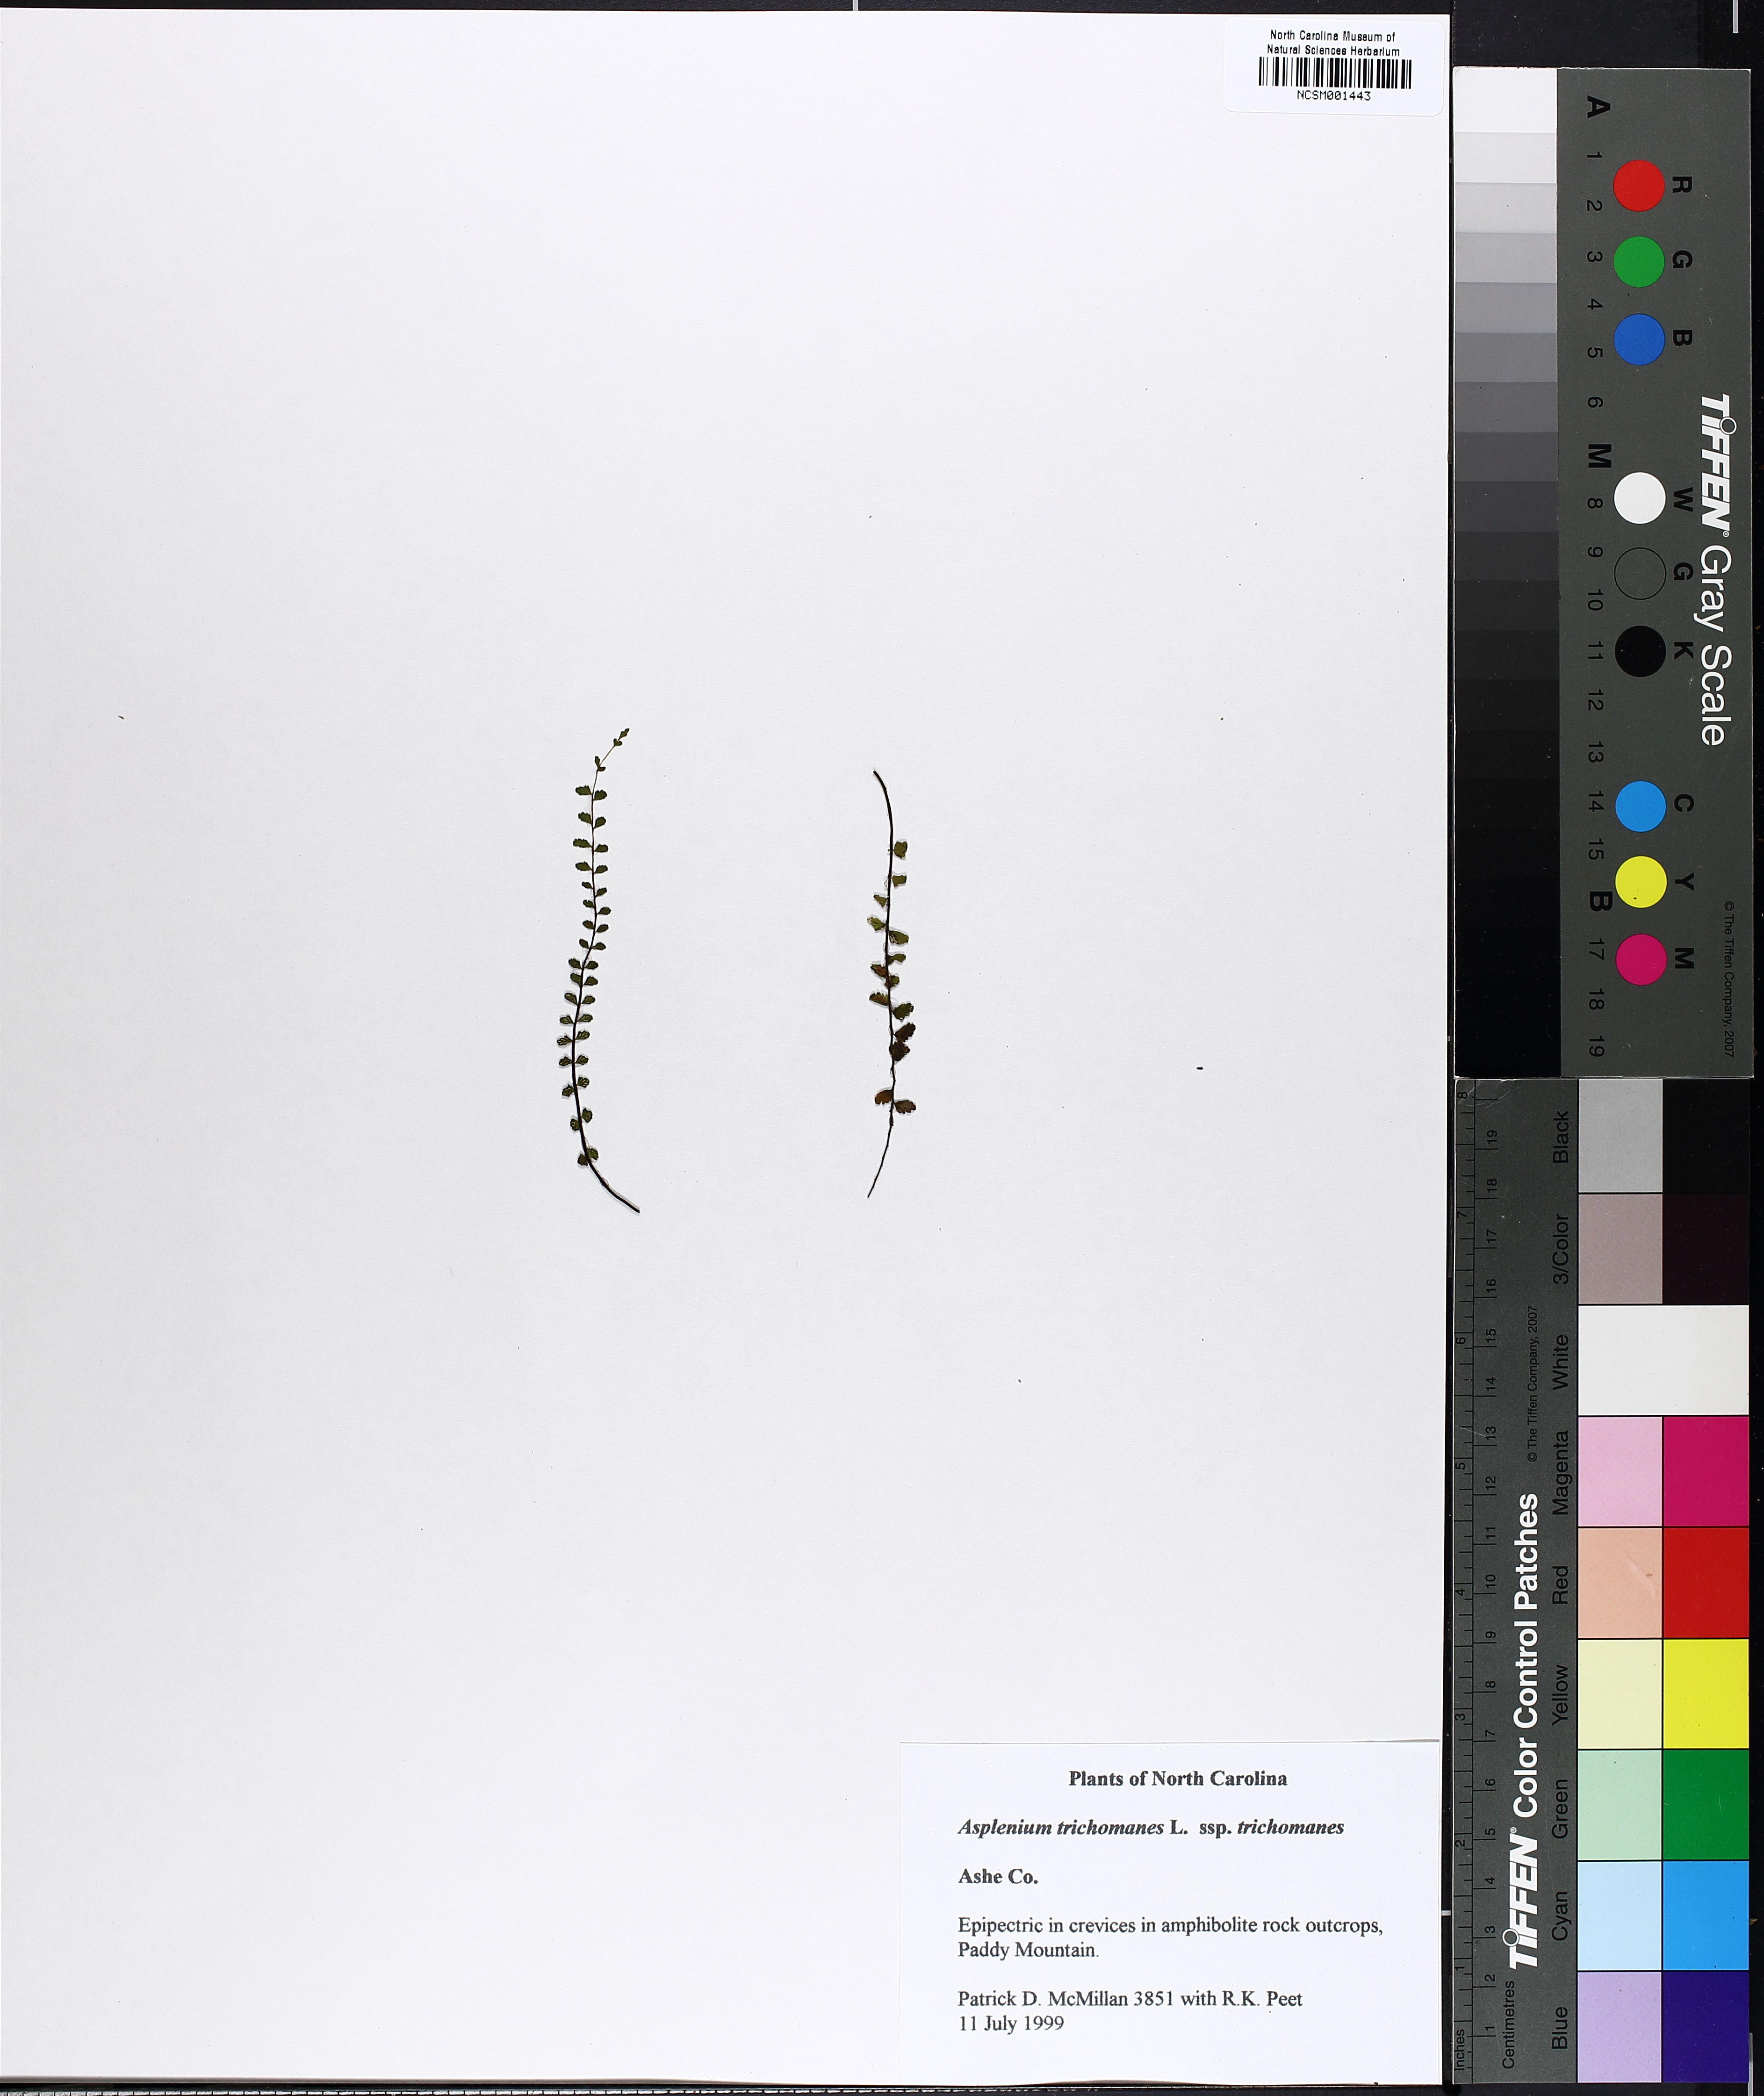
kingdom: Plantae
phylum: Tracheophyta
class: Polypodiopsida
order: Polypodiales
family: Aspleniaceae
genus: Asplenium
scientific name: Asplenium trichomanes
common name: Maidenhair spleenwort
